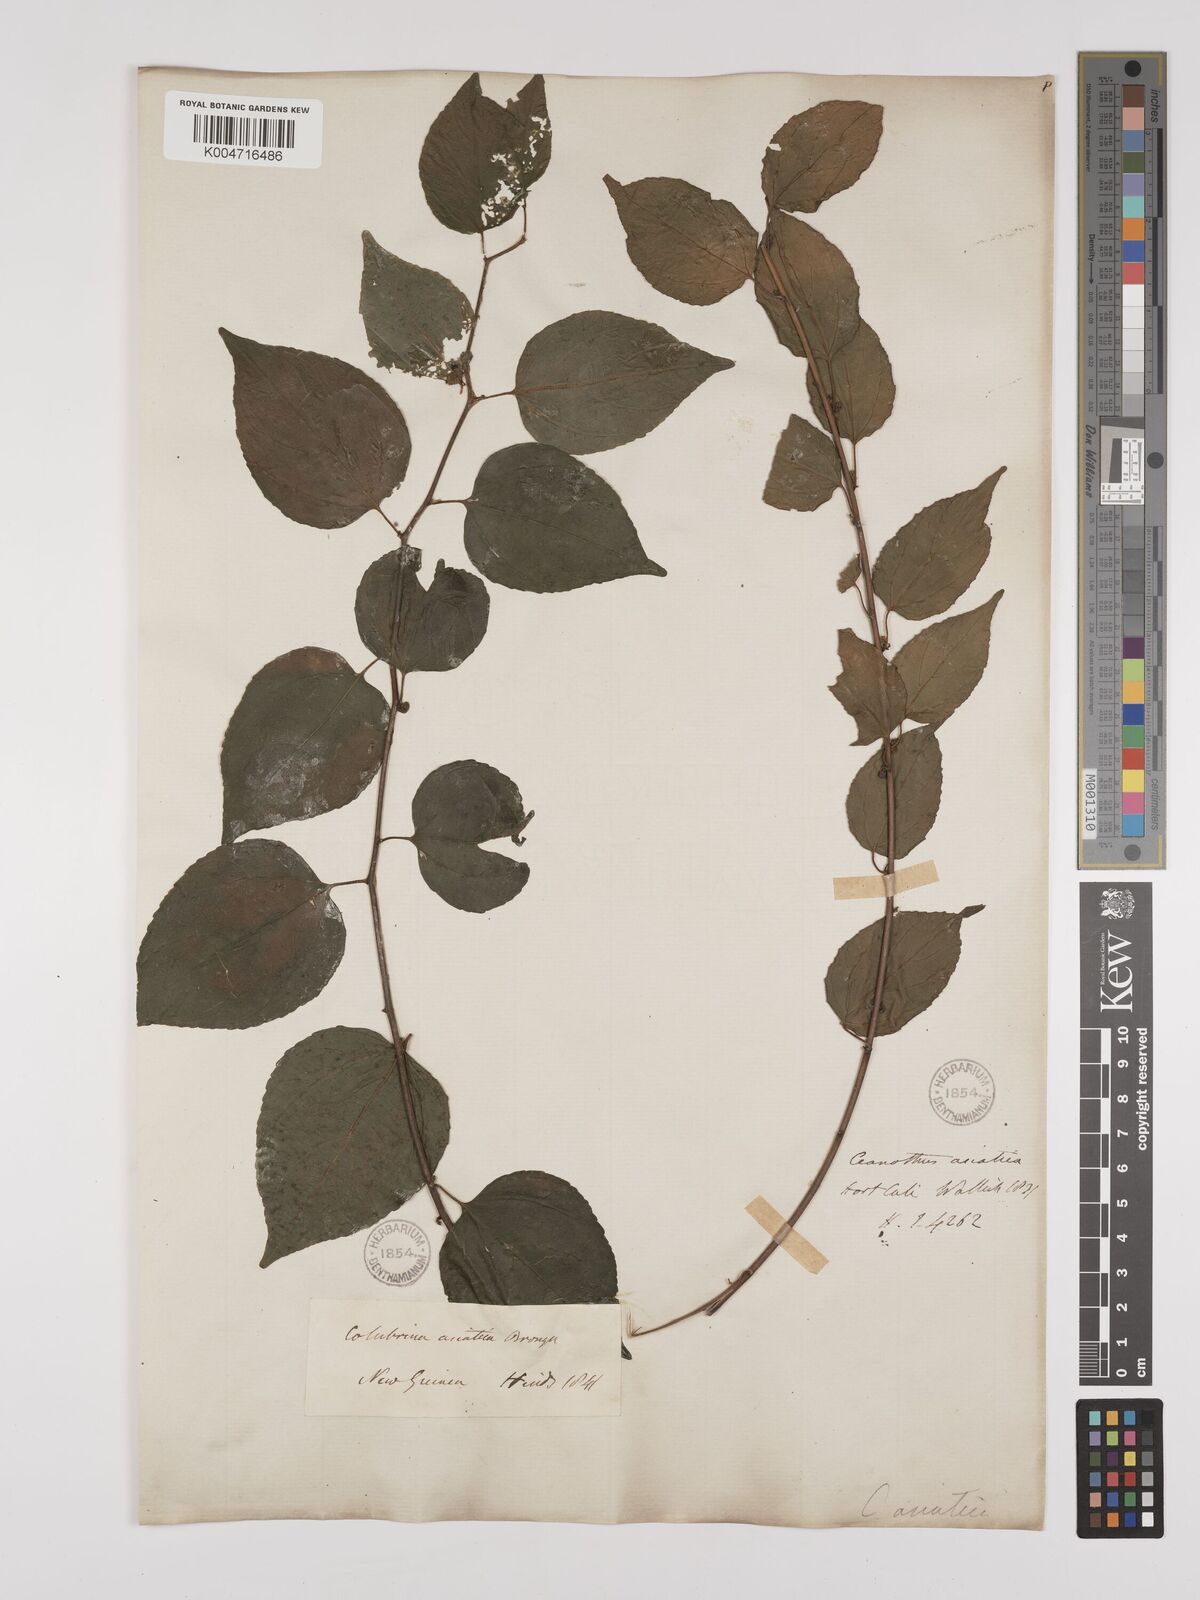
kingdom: Plantae
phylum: Tracheophyta
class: Magnoliopsida
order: Rosales
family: Rhamnaceae
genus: Colubrina
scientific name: Colubrina asiatica
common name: Asian nakedwood
